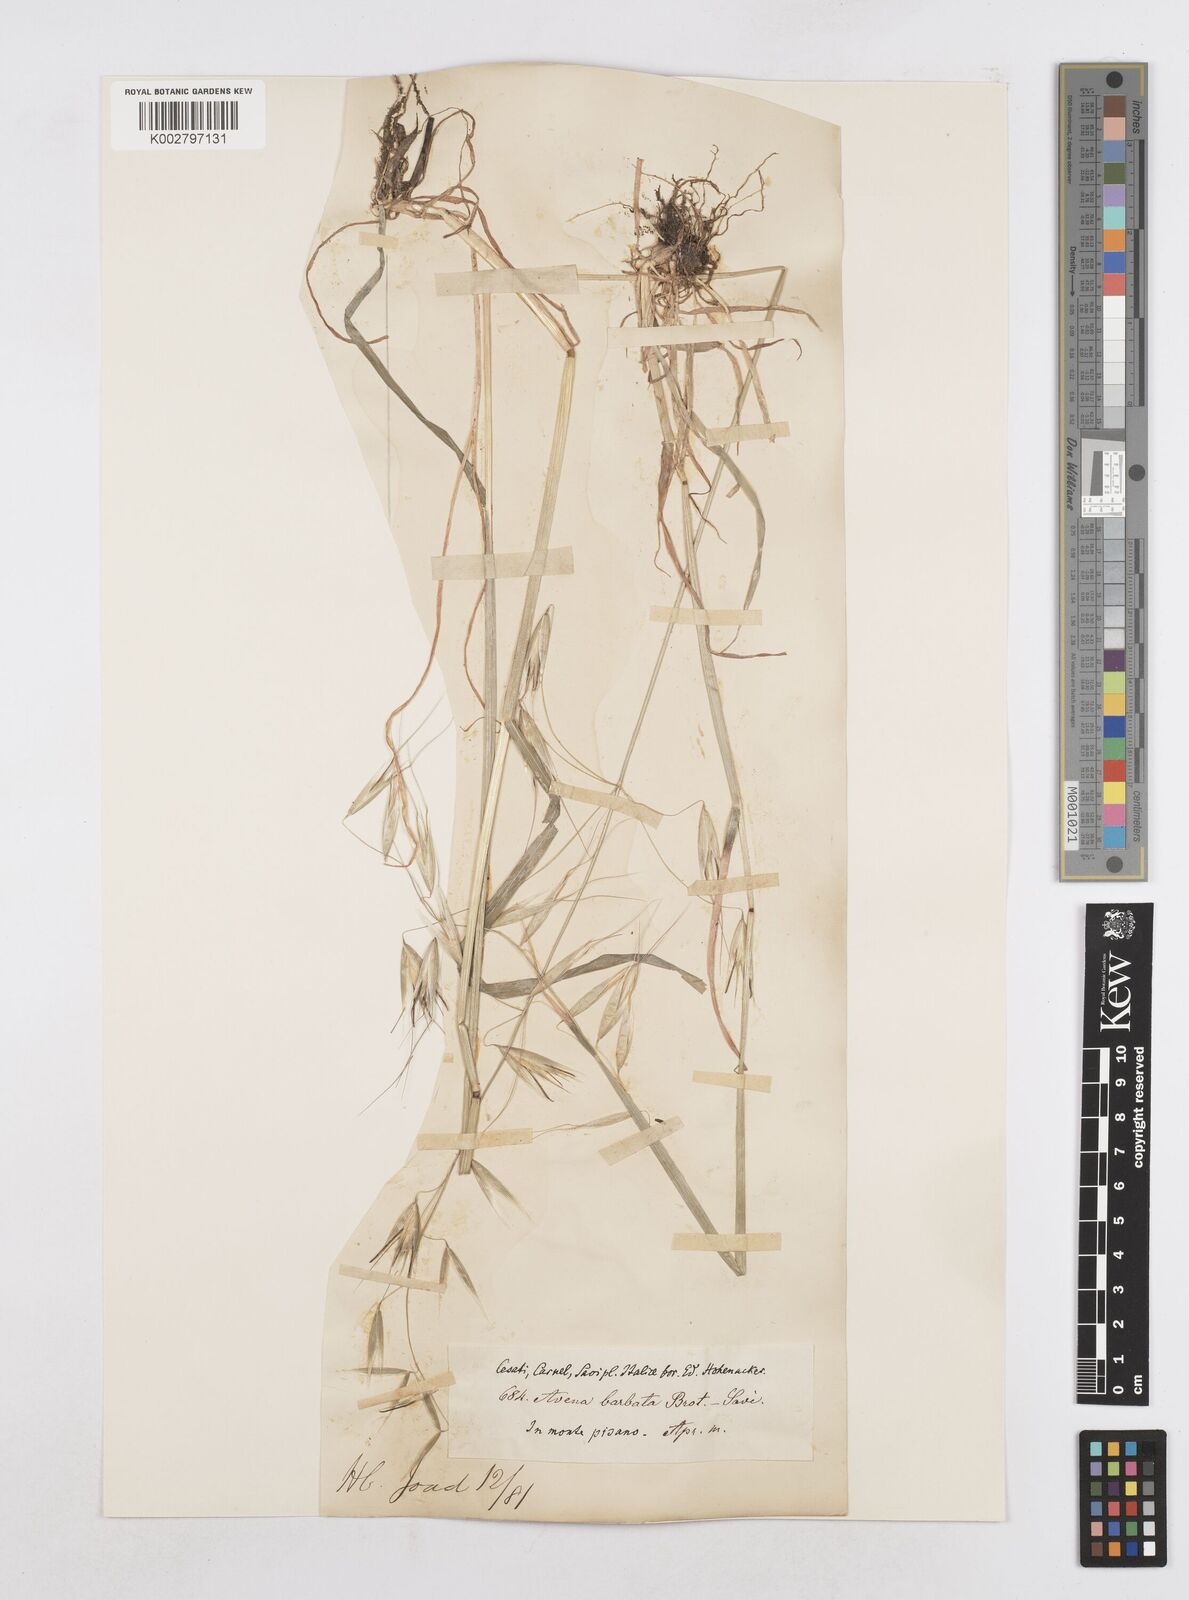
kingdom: Plantae
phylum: Tracheophyta
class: Liliopsida
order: Poales
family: Poaceae
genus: Avena
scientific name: Avena
